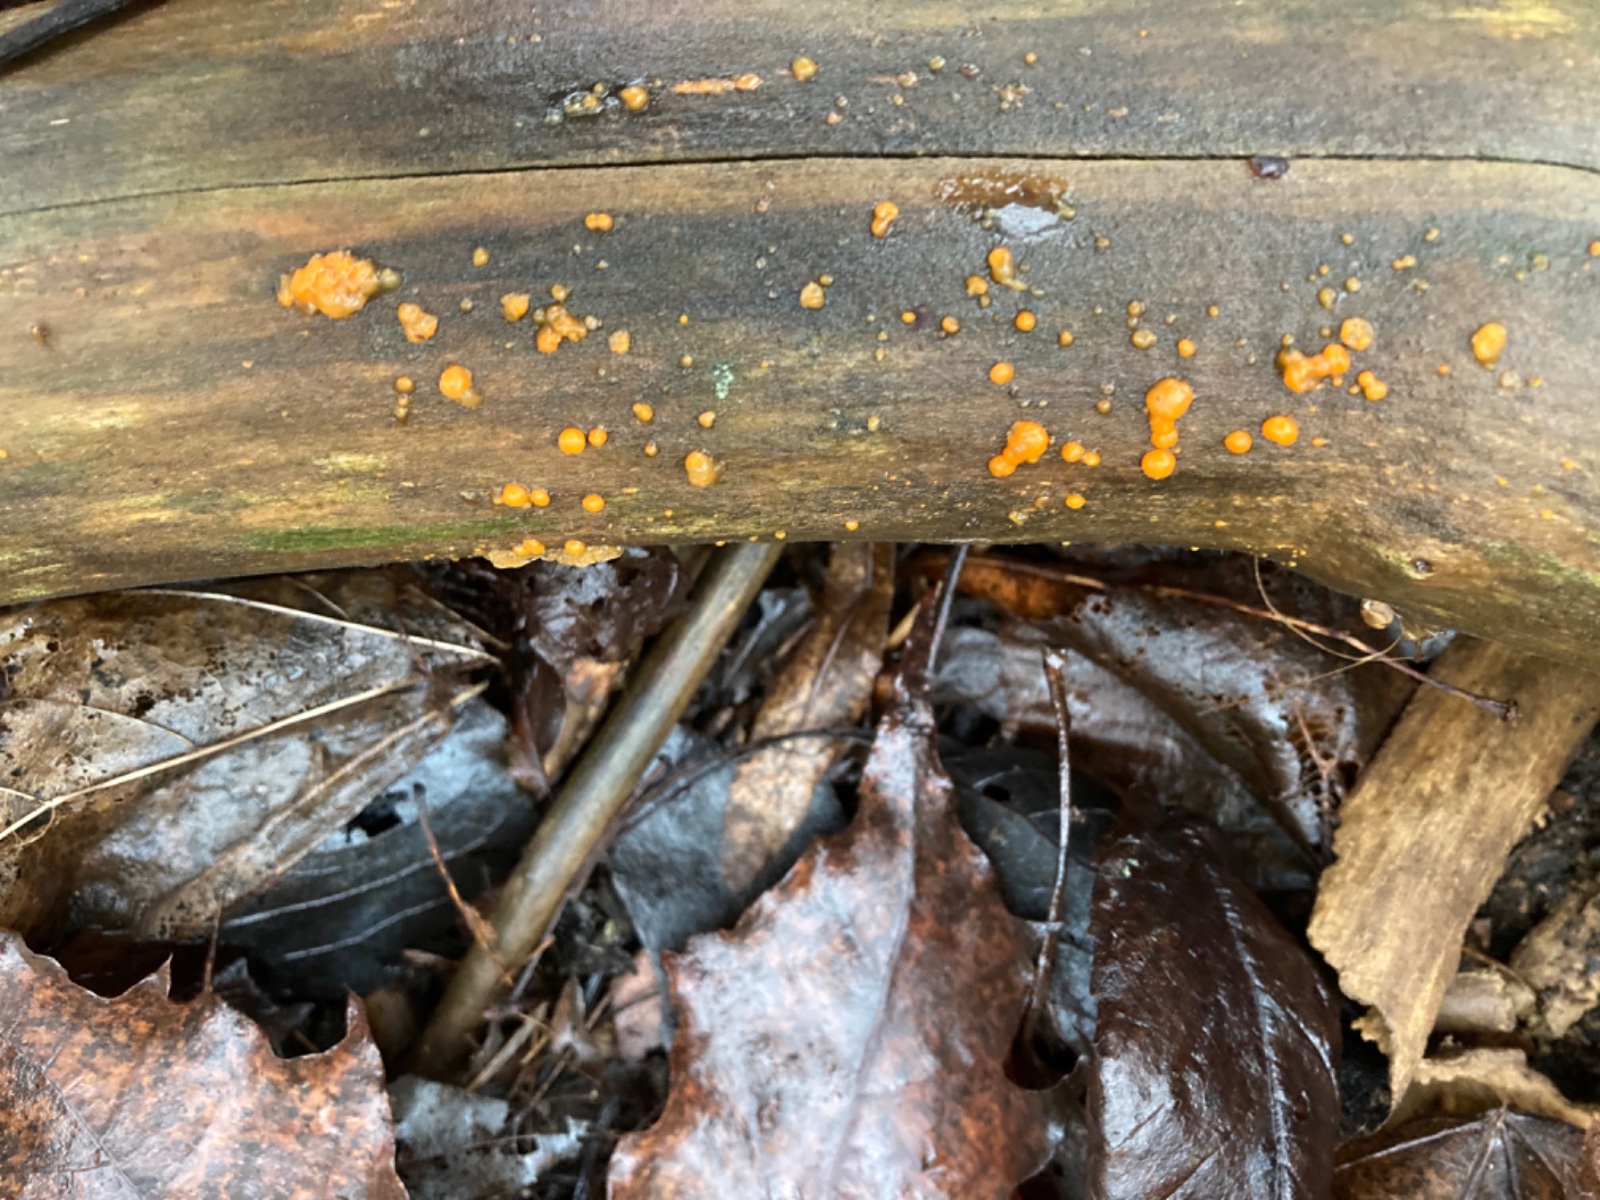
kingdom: Fungi
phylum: Basidiomycota
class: Dacrymycetes
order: Dacrymycetales
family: Dacrymycetaceae
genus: Dacrymyces
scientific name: Dacrymyces stillatus
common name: almindelig tåresvamp
